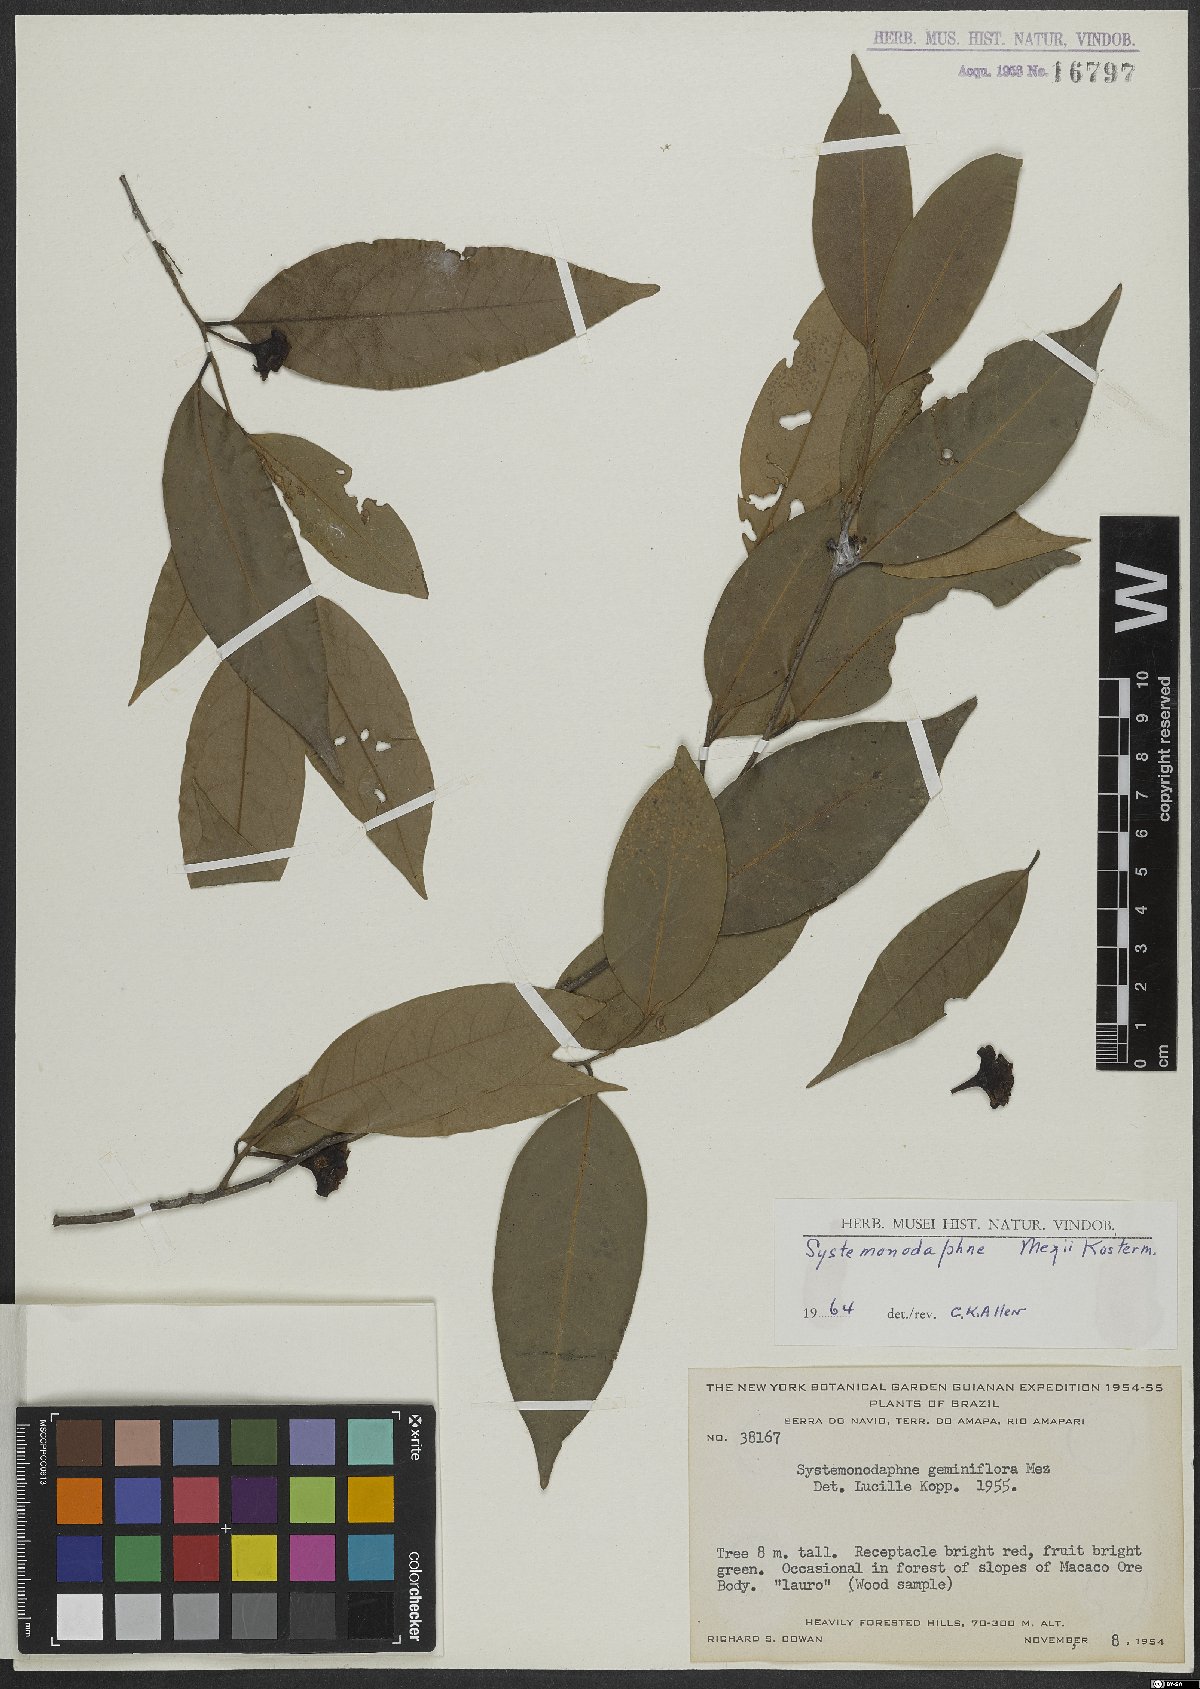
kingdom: Plantae
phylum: Tracheophyta
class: Magnoliopsida
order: Laurales
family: Lauraceae
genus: Aiouea
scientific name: Aiouea
